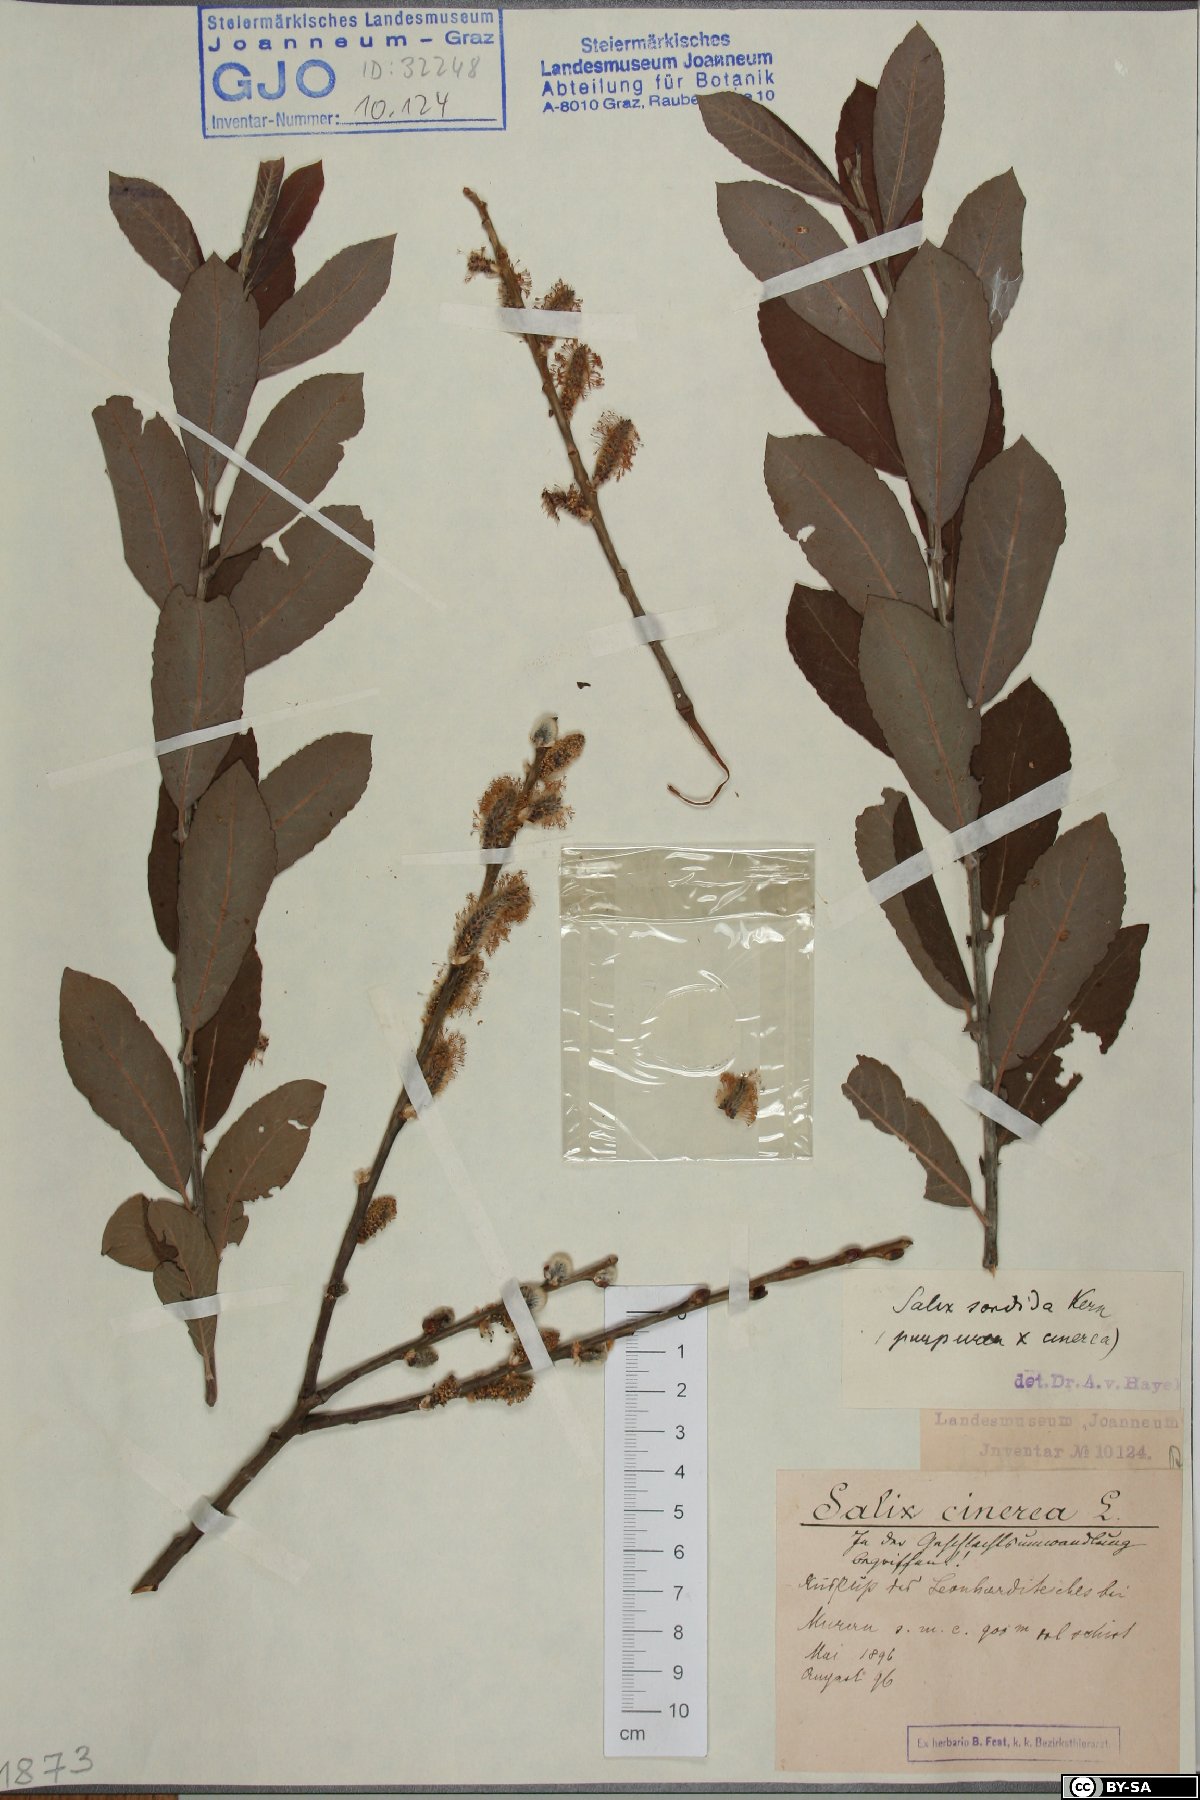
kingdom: Plantae
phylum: Tracheophyta
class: Magnoliopsida
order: Malpighiales
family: Salicaceae
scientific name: Salicaceae
